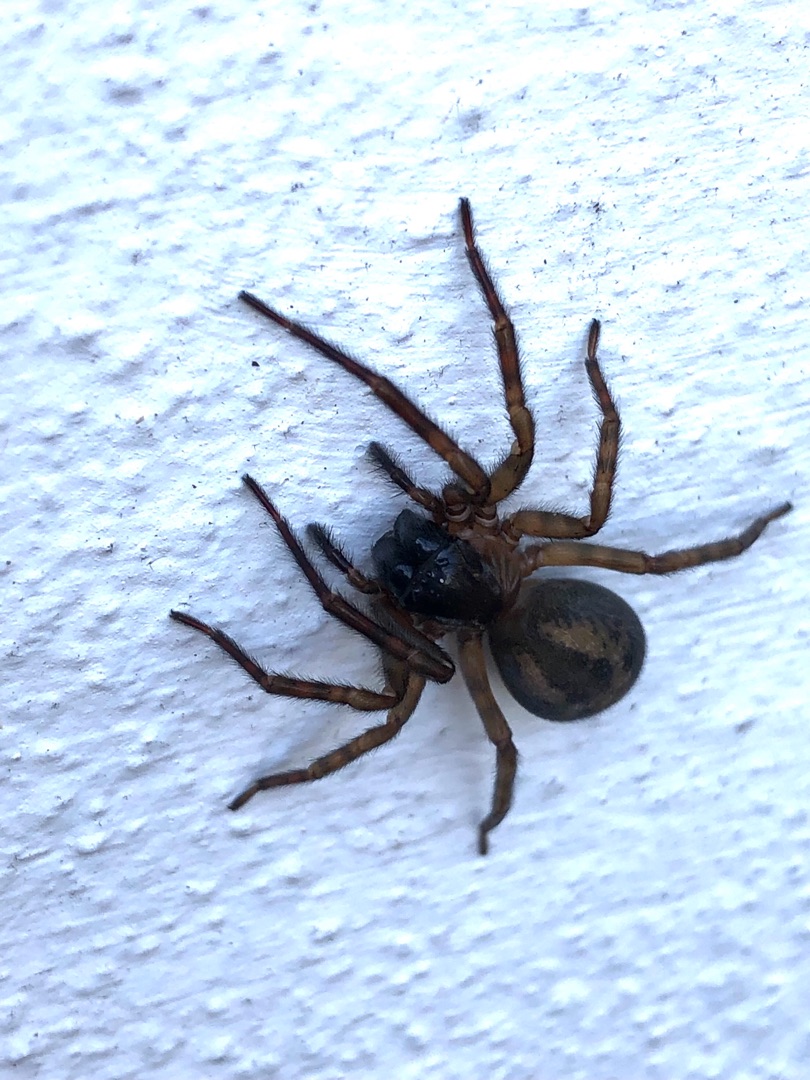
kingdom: Animalia
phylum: Arthropoda
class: Arachnida
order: Araneae
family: Amaurobiidae
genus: Amaurobius
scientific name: Amaurobius similis
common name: Huskartespinder
